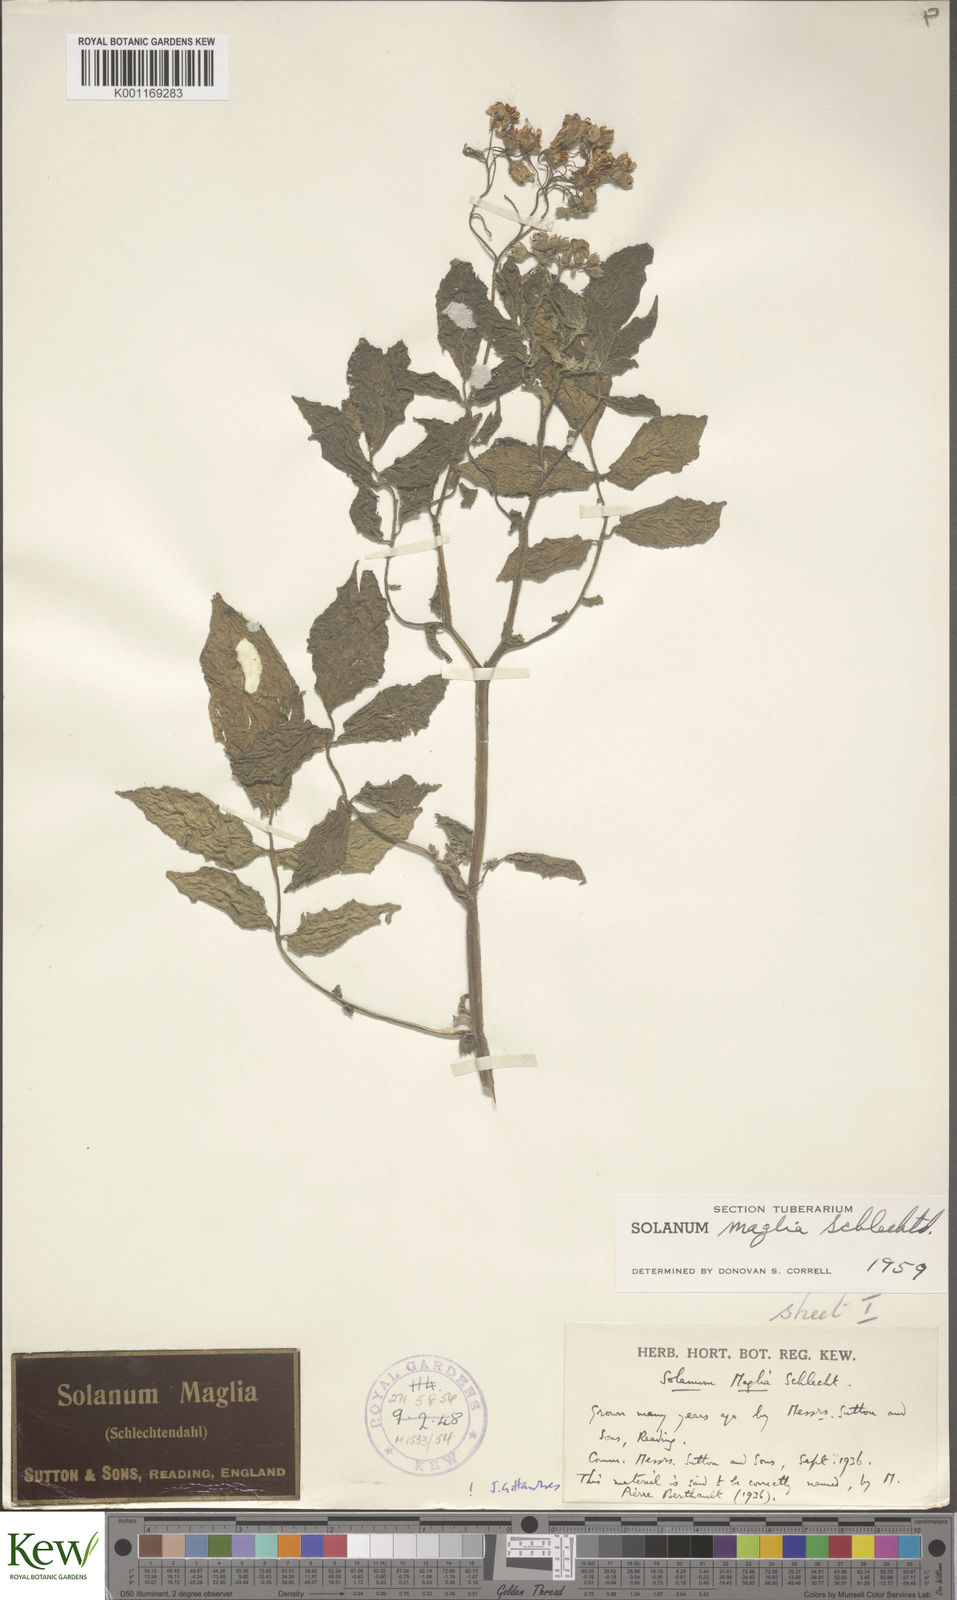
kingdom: Plantae
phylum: Tracheophyta
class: Magnoliopsida
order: Solanales
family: Solanaceae
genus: Solanum
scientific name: Solanum maglia
